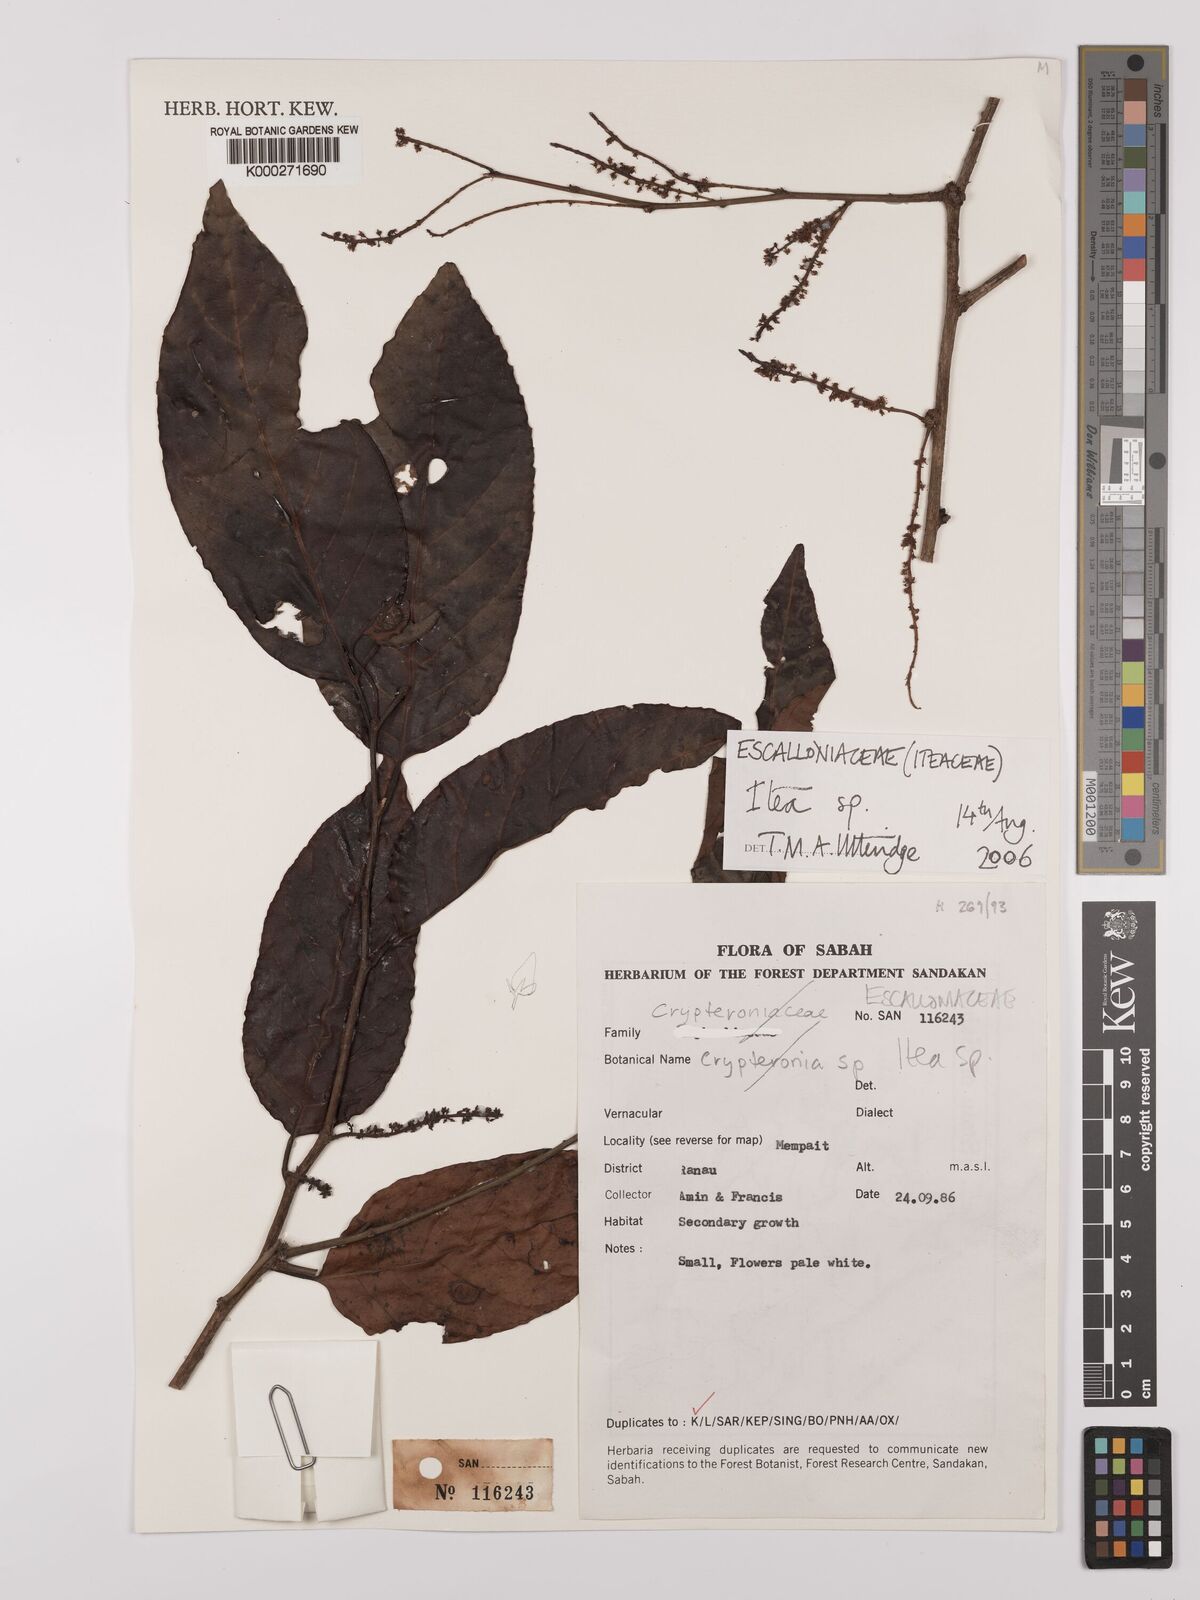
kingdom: Plantae
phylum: Tracheophyta
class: Magnoliopsida
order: Saxifragales
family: Iteaceae
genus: Itea
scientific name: Itea
